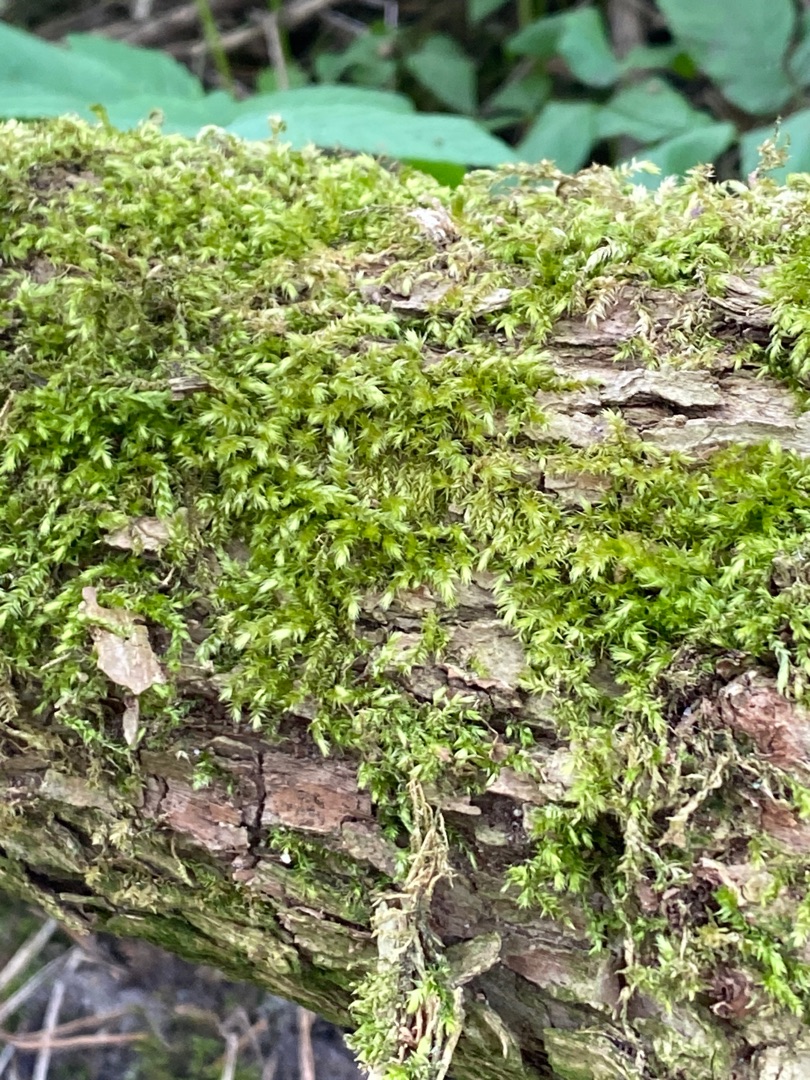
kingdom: Plantae
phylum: Bryophyta
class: Bryopsida
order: Hypnales
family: Brachytheciaceae
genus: Brachythecium
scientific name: Brachythecium rutabulum
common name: Almindelig kortkapsel
